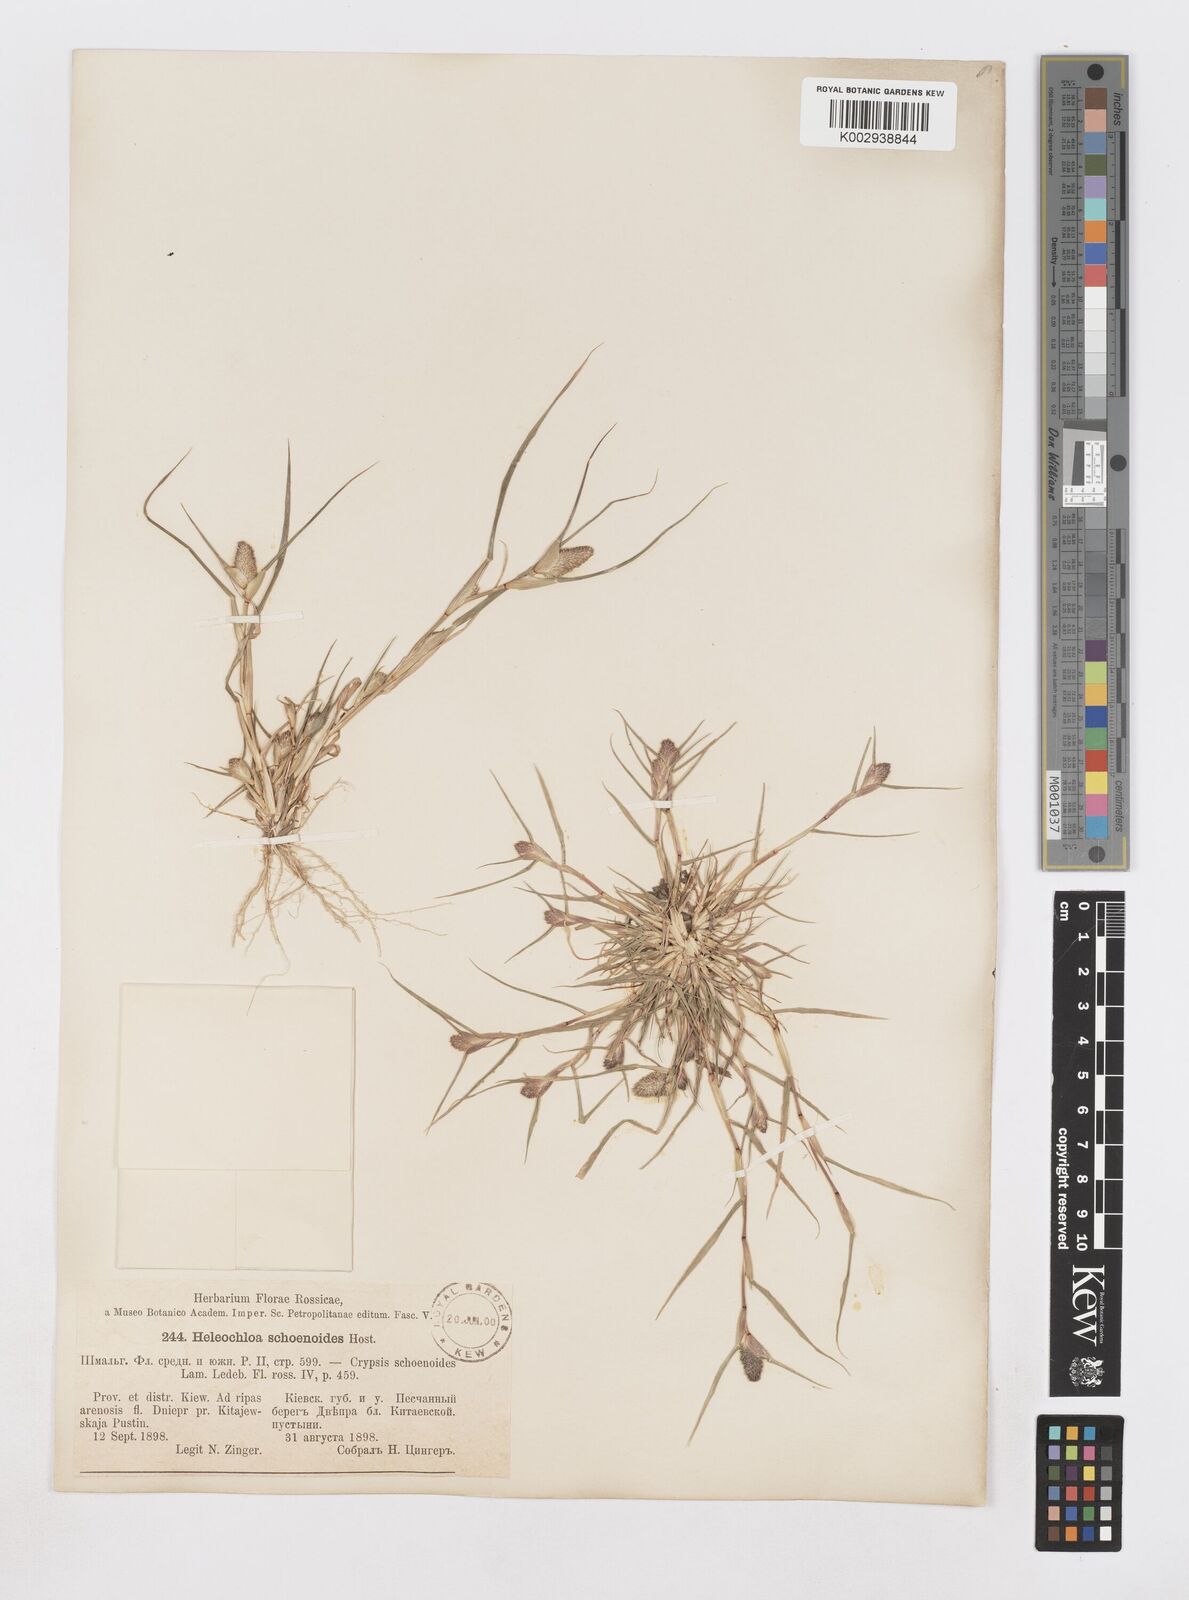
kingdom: Plantae
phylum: Tracheophyta
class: Liliopsida
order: Poales
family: Poaceae
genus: Sporobolus
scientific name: Sporobolus schoenoides
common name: Rush-like timothy
